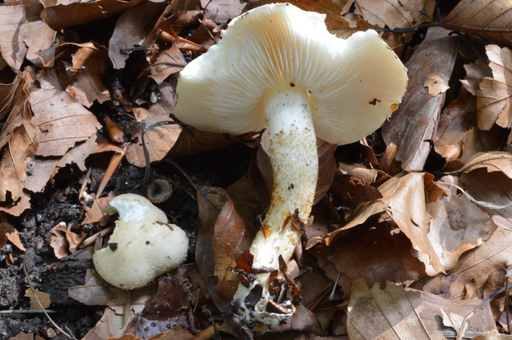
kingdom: Fungi
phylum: Basidiomycota
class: Agaricomycetes
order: Agaricales
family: Agaricaceae
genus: Chamaemyces
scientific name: Chamaemyces fracidus
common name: dråbehat
